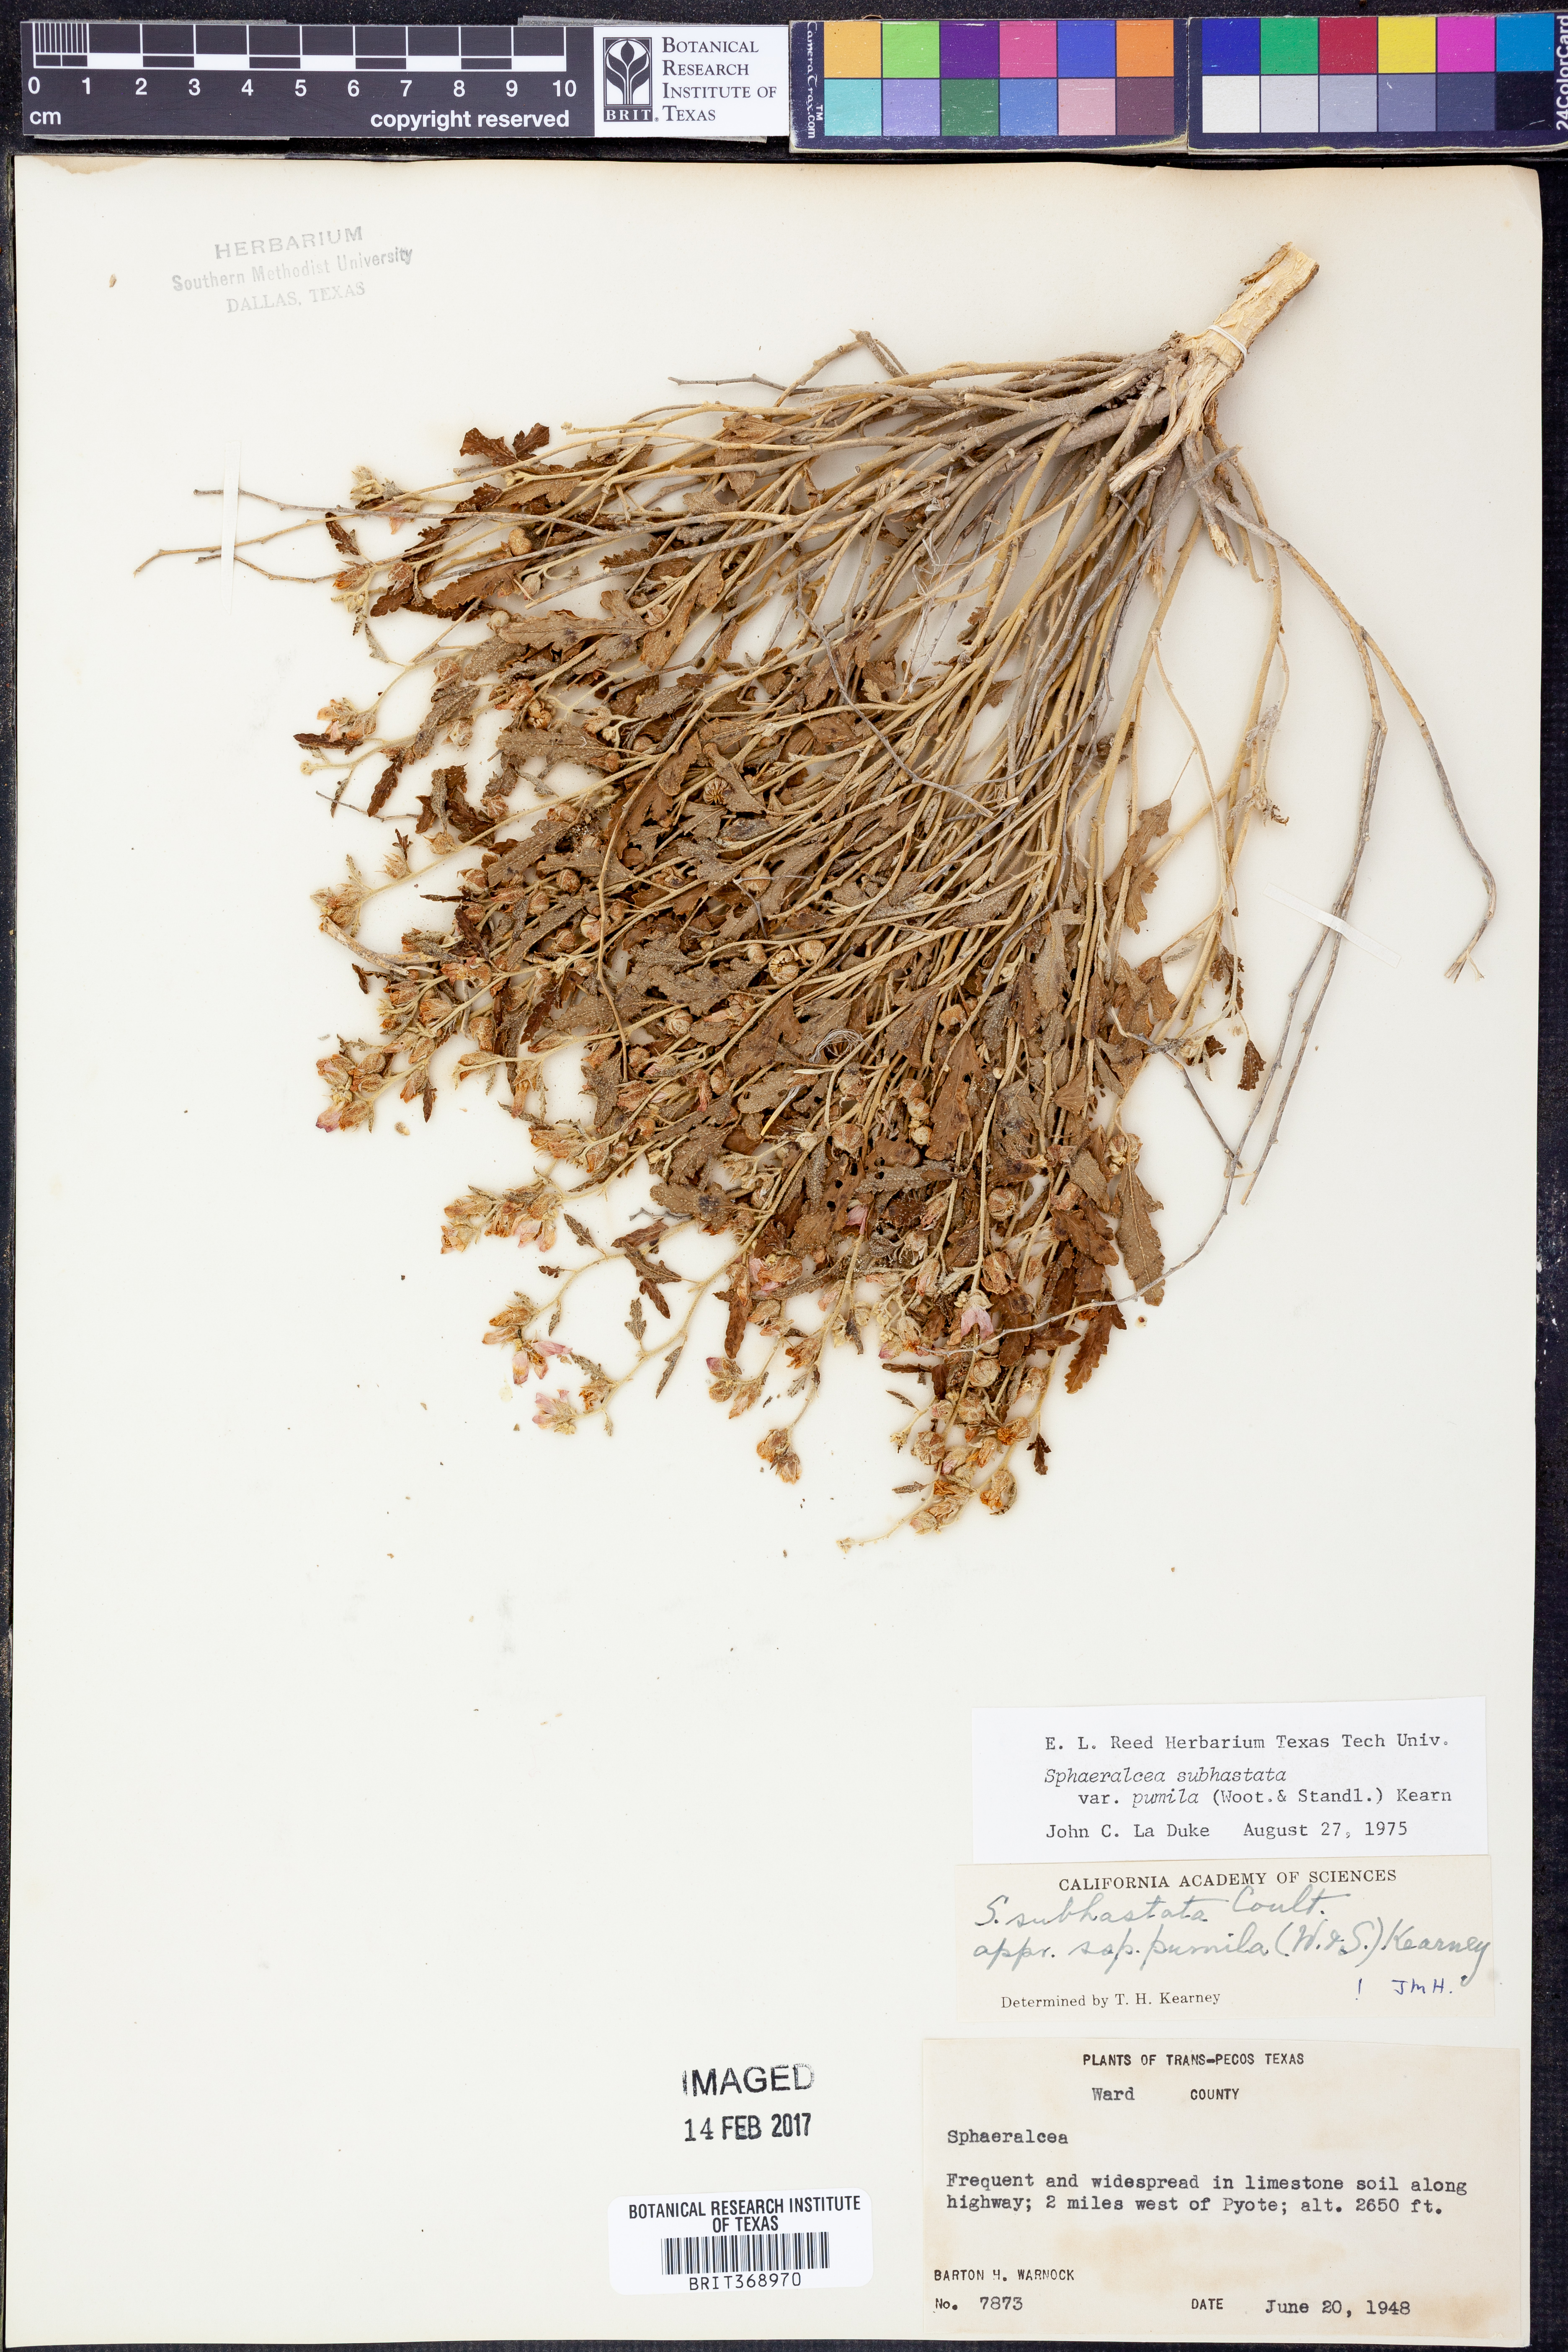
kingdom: Plantae
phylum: Tracheophyta
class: Magnoliopsida
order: Malvales
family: Malvaceae
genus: Sphaeralcea
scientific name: Sphaeralcea hastulata
